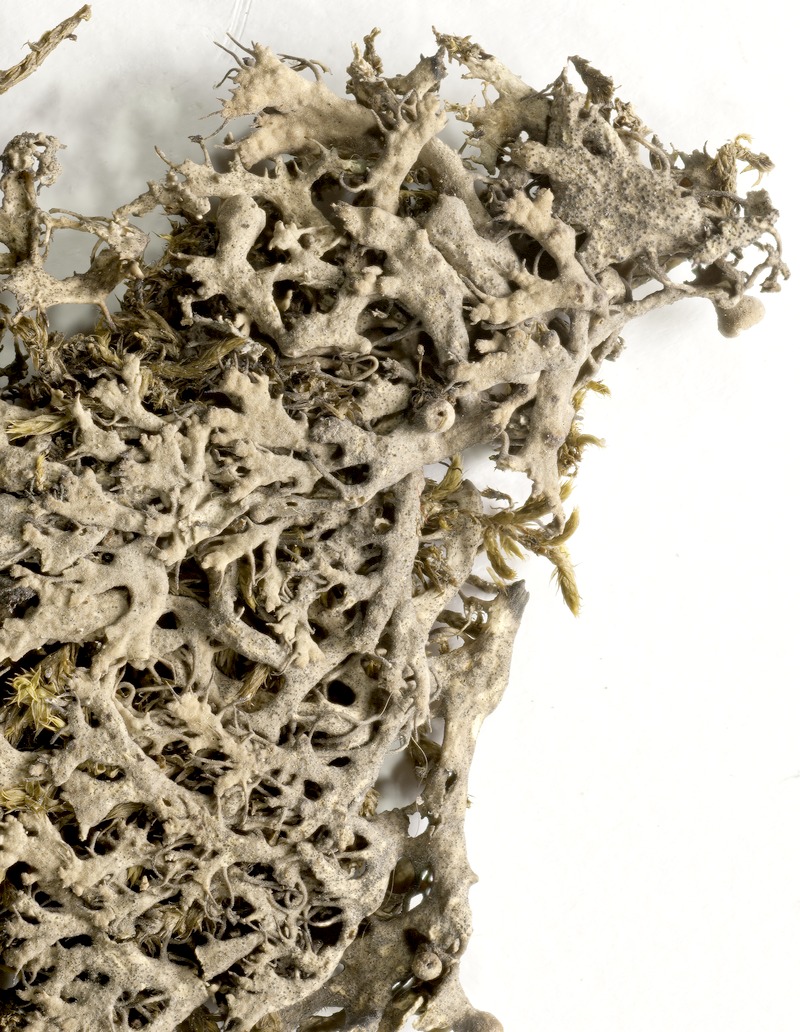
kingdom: Fungi
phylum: Ascomycota
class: Dothideomycetes
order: Mycosphaerellales
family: Mycosphaerellaceae
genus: Stigmidium
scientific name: Stigmidium hageniae
